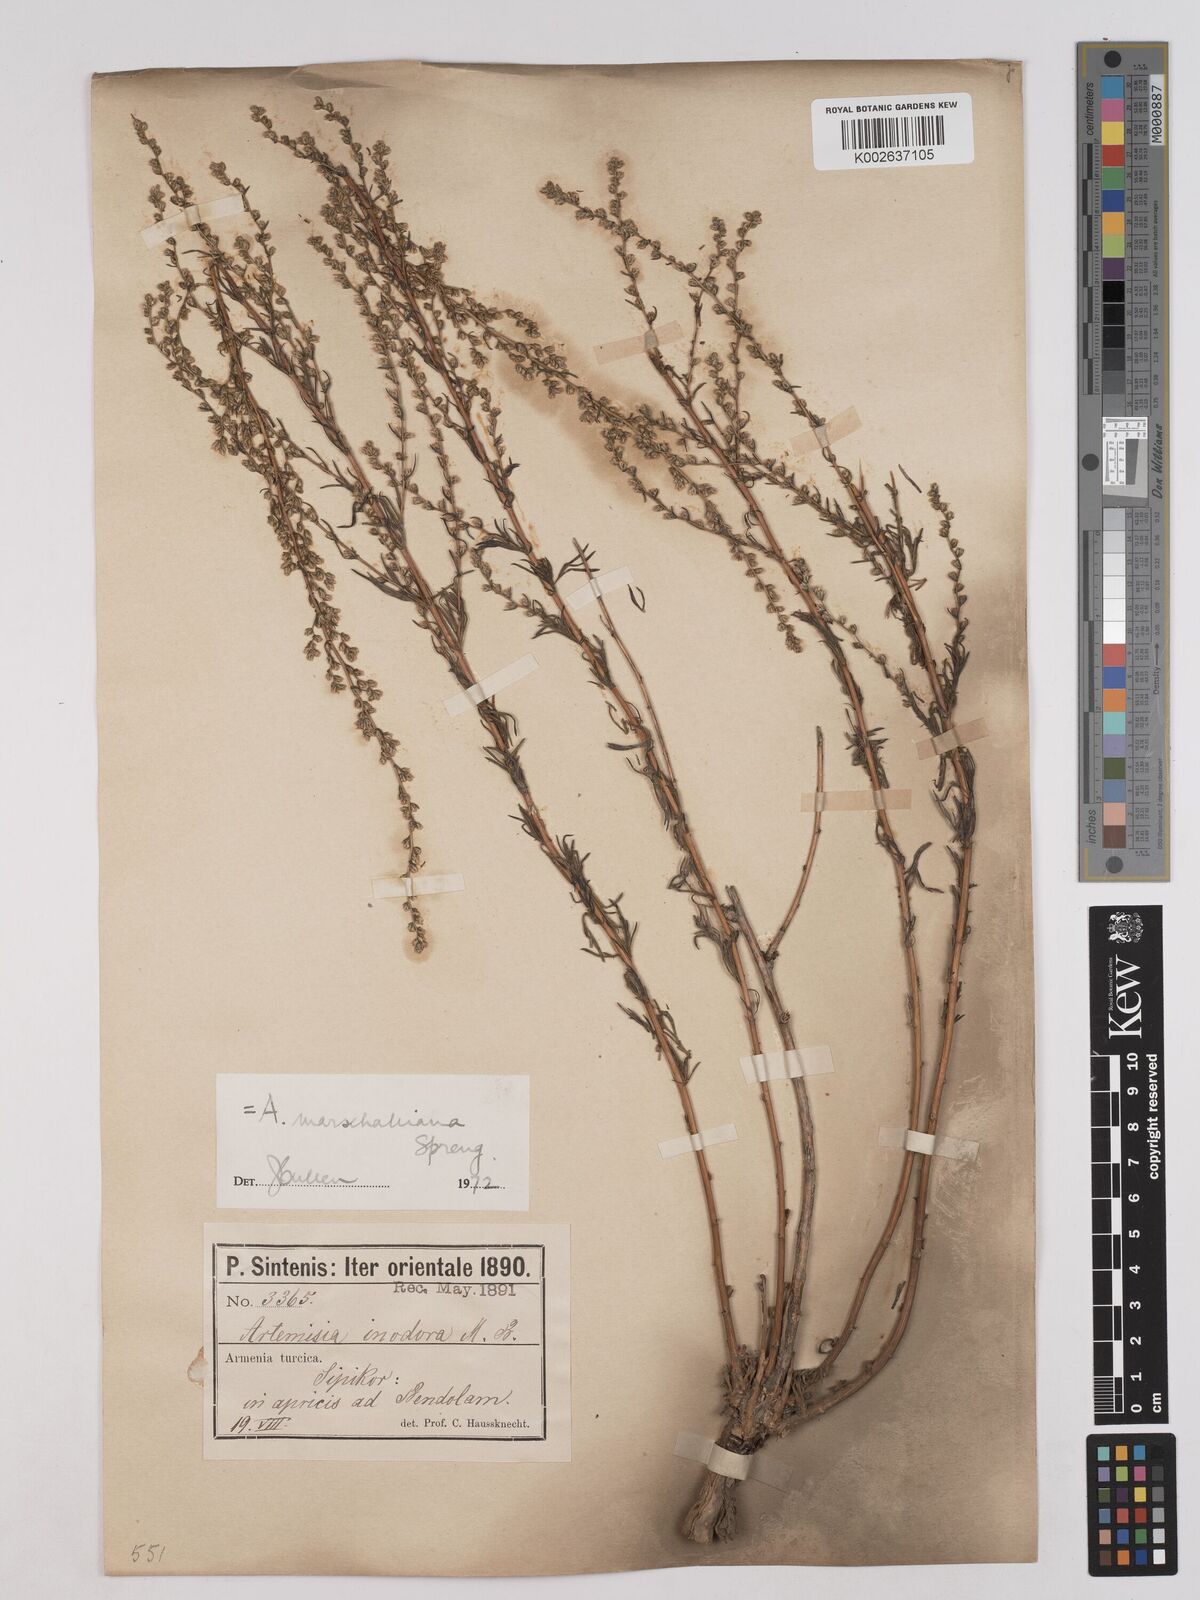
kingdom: Plantae
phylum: Tracheophyta
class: Magnoliopsida
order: Asterales
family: Asteraceae
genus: Artemisia
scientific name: Artemisia marschalliana
